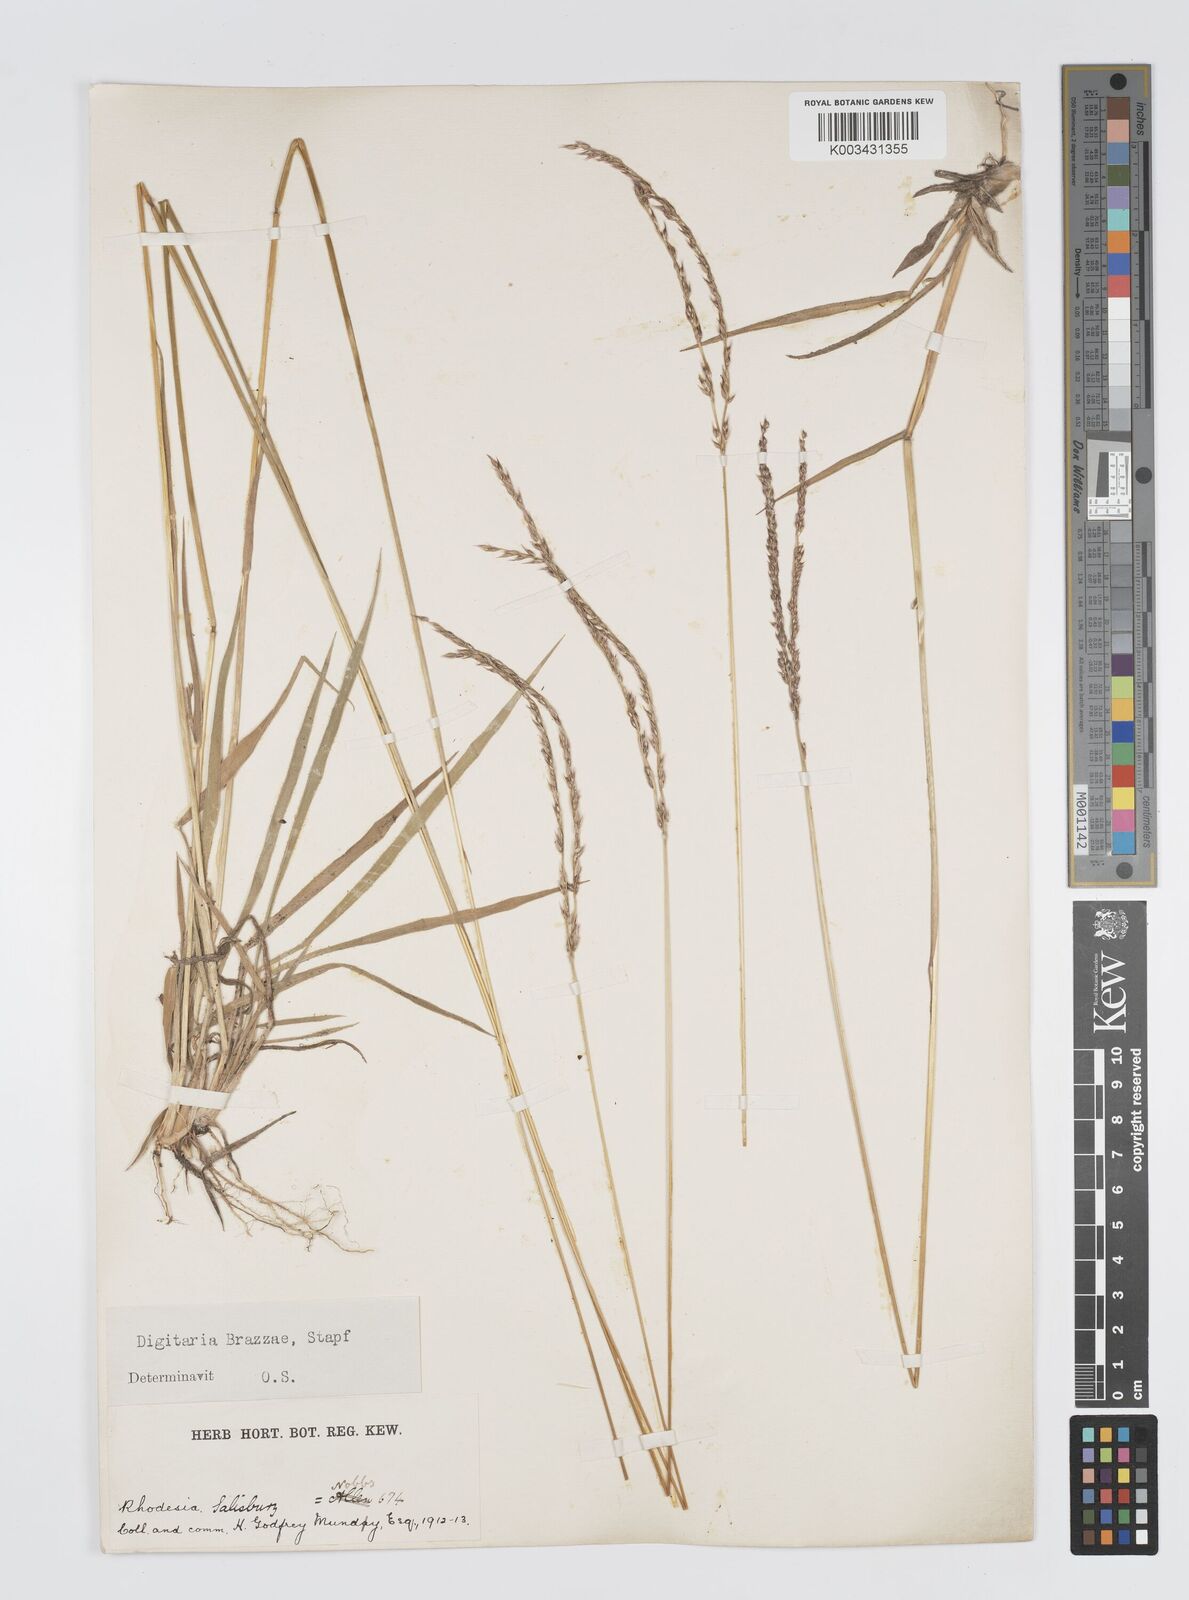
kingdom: Plantae
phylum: Tracheophyta
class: Liliopsida
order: Poales
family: Poaceae
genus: Digitaria
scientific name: Digitaria brazzae
